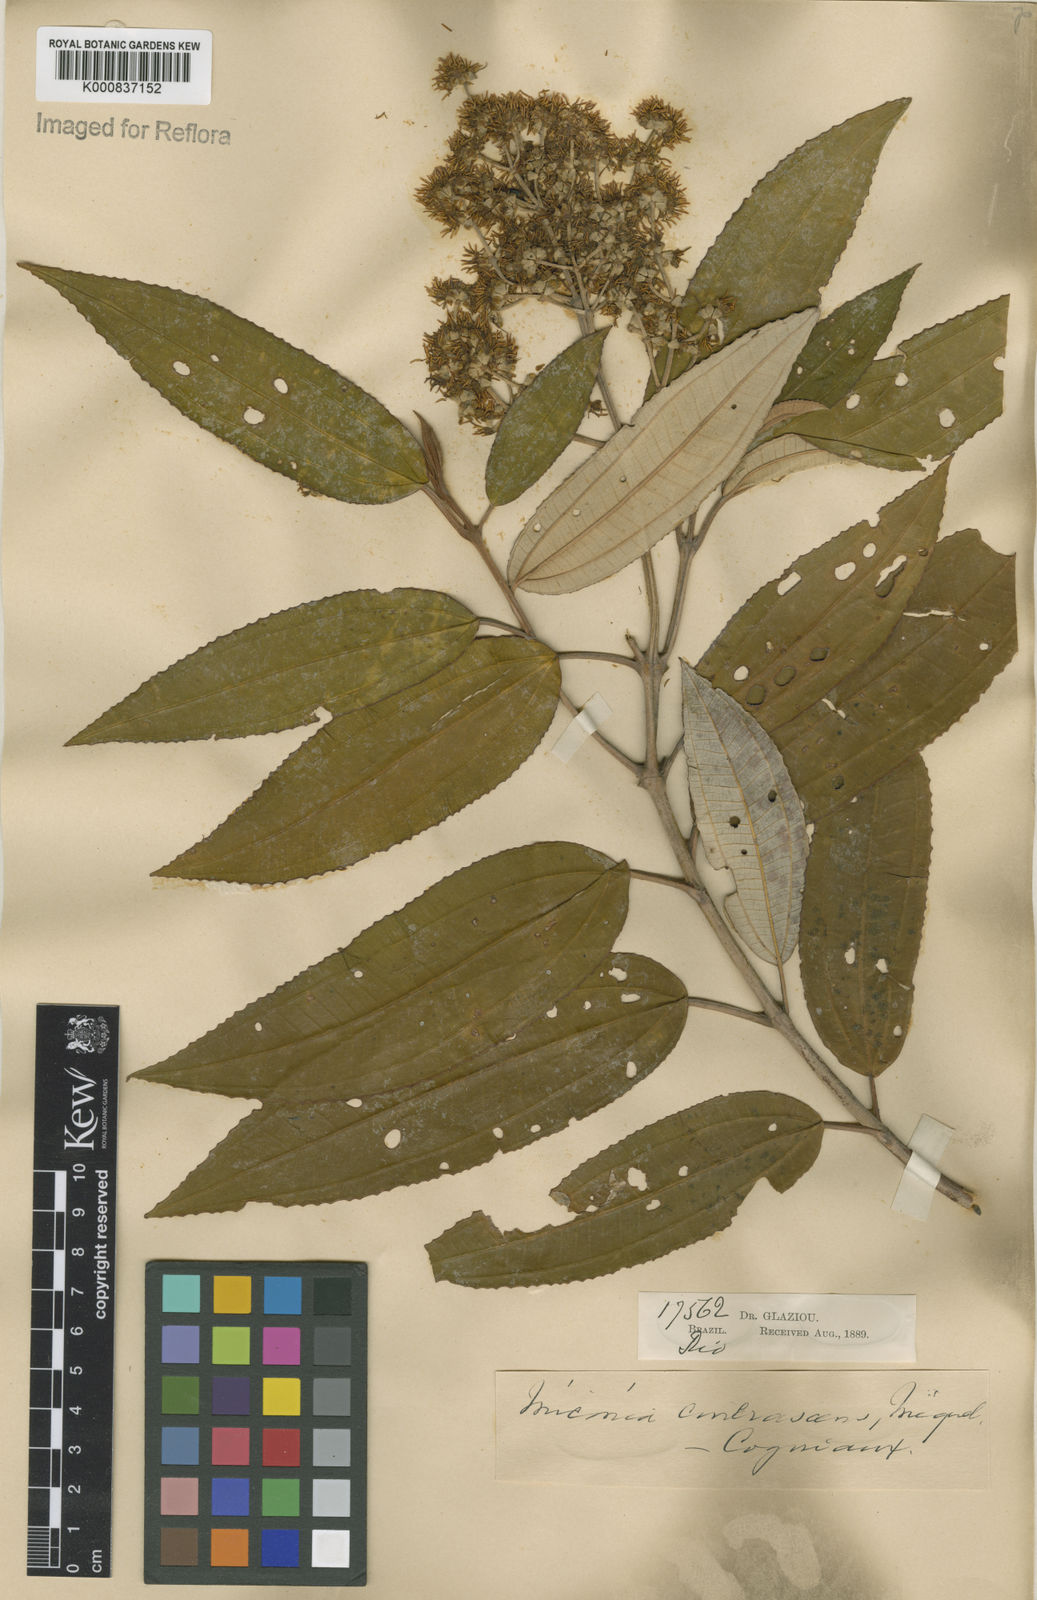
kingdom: Plantae
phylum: Tracheophyta
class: Magnoliopsida
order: Myrtales
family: Melastomataceae
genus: Miconia
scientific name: Miconia cinerascens
